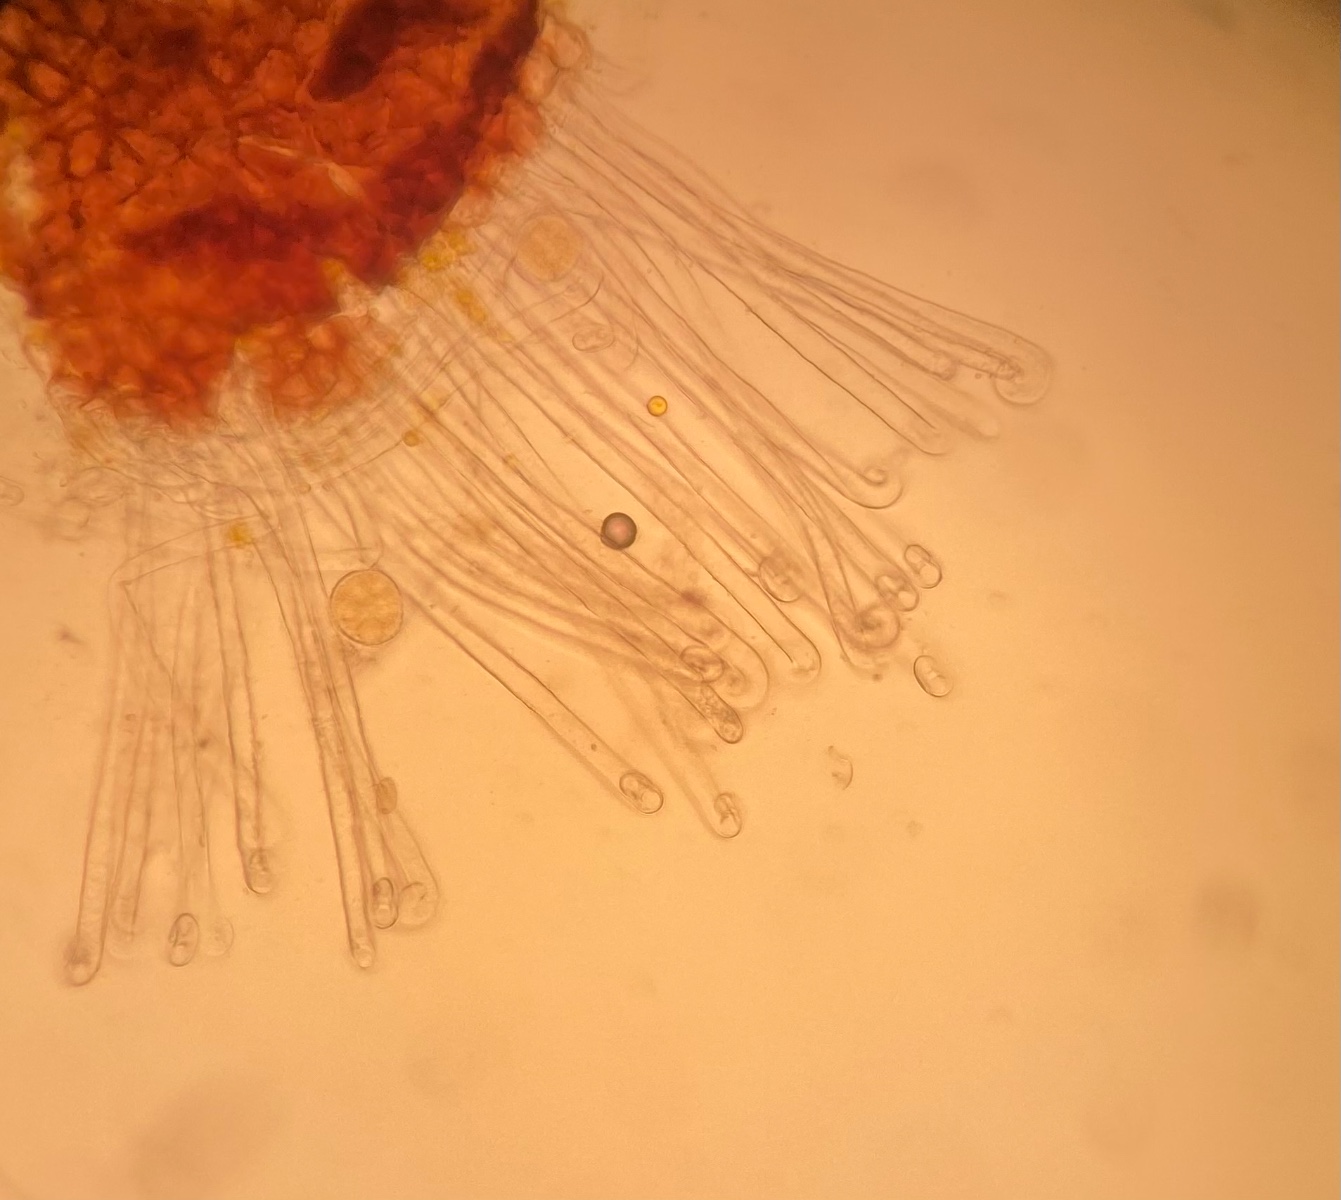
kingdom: Fungi
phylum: Ascomycota
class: Leotiomycetes
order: Helotiales
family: Erysiphaceae
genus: Erysiphe
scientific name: Erysiphe adunca
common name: pile-meldug
